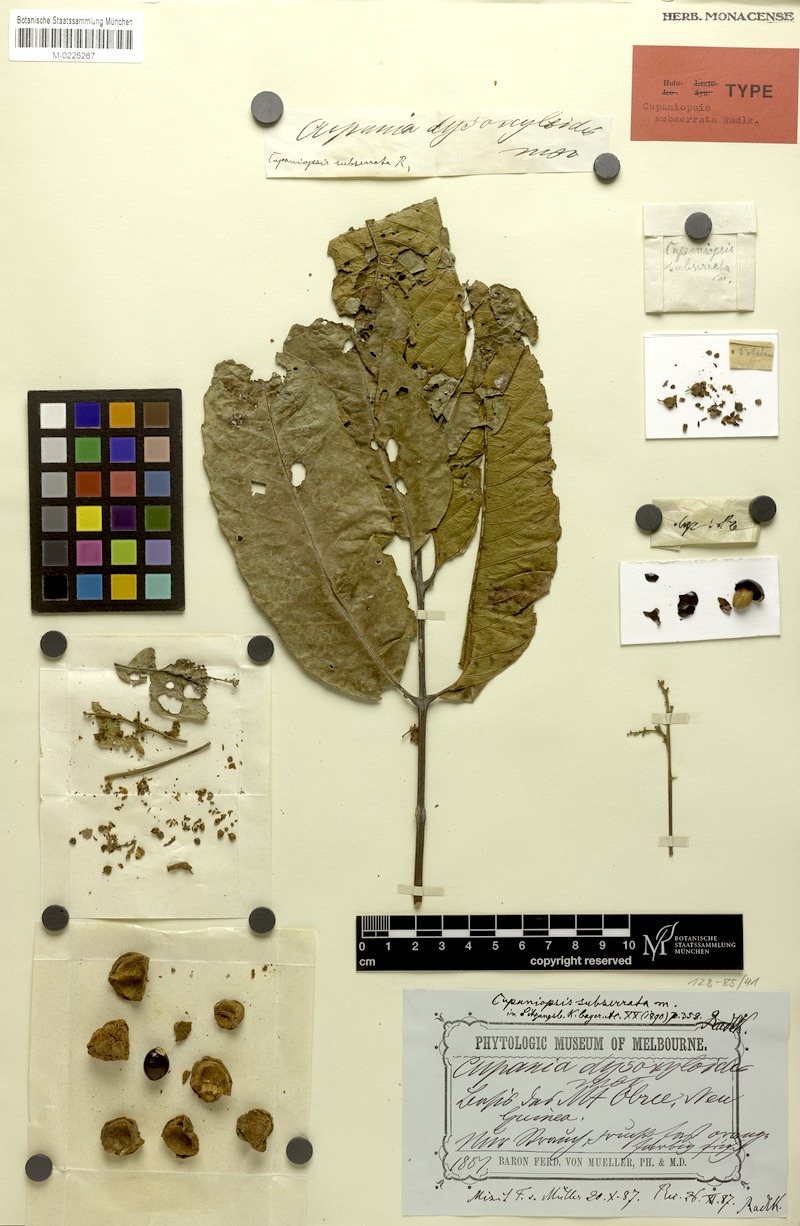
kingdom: Plantae
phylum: Tracheophyta
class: Magnoliopsida
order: Sapindales
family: Sapindaceae
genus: Cupaniopsis
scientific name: Cupaniopsis curvidens
